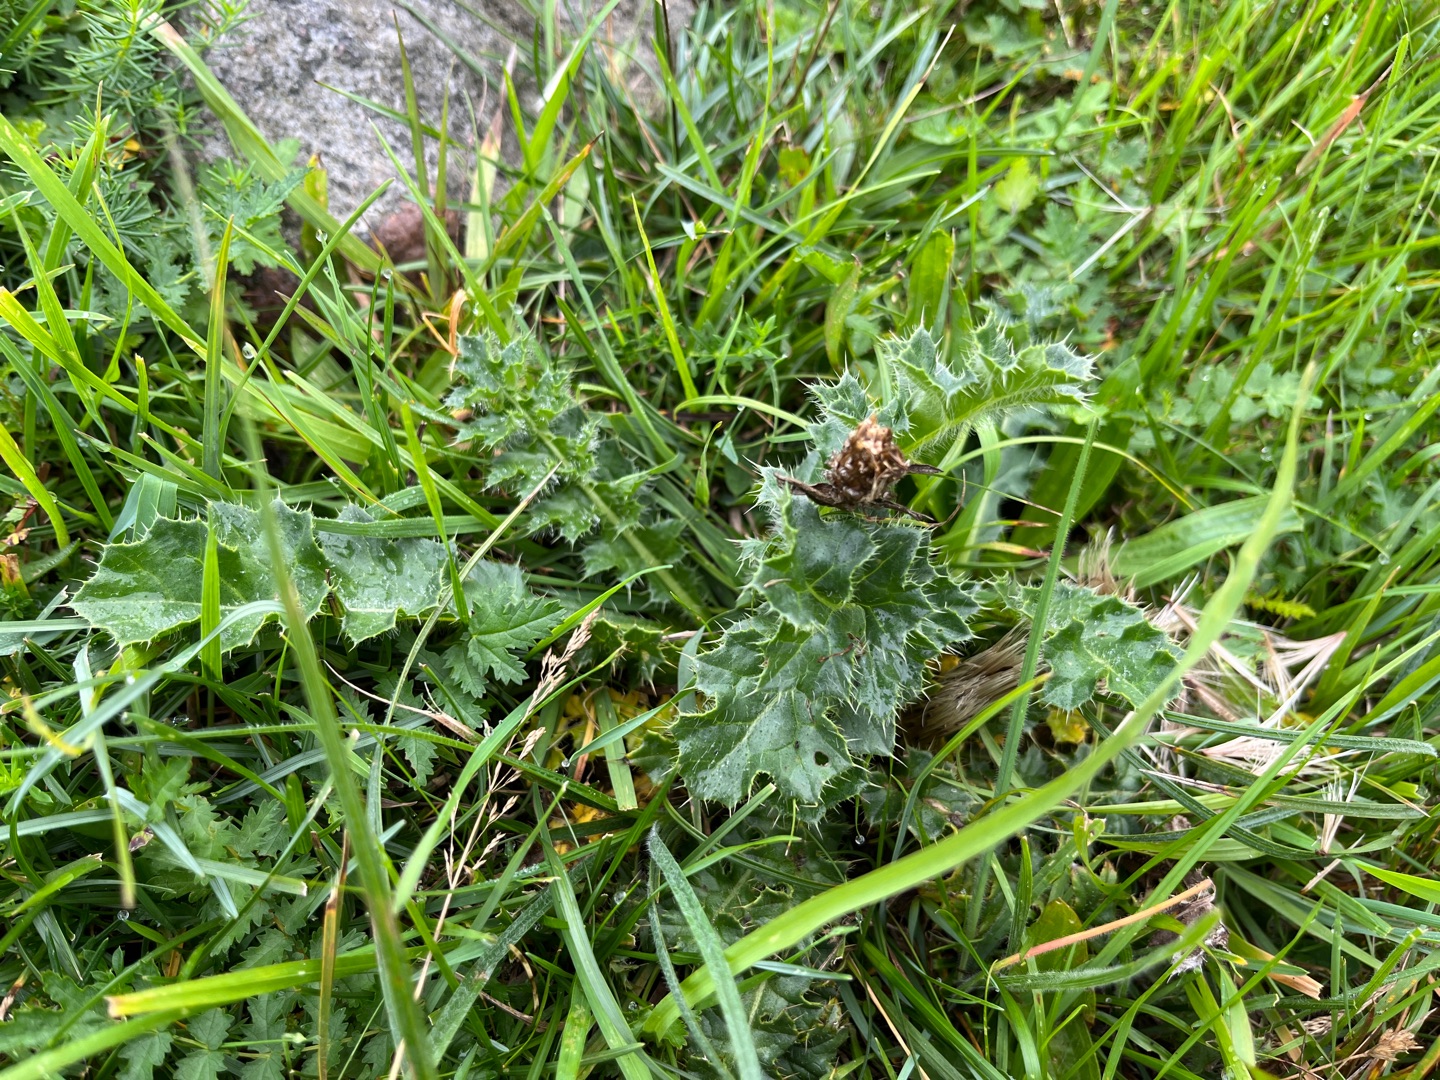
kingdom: Plantae
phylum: Tracheophyta
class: Magnoliopsida
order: Asterales
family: Asteraceae
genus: Cirsium
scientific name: Cirsium acaule
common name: Lav tidsel
